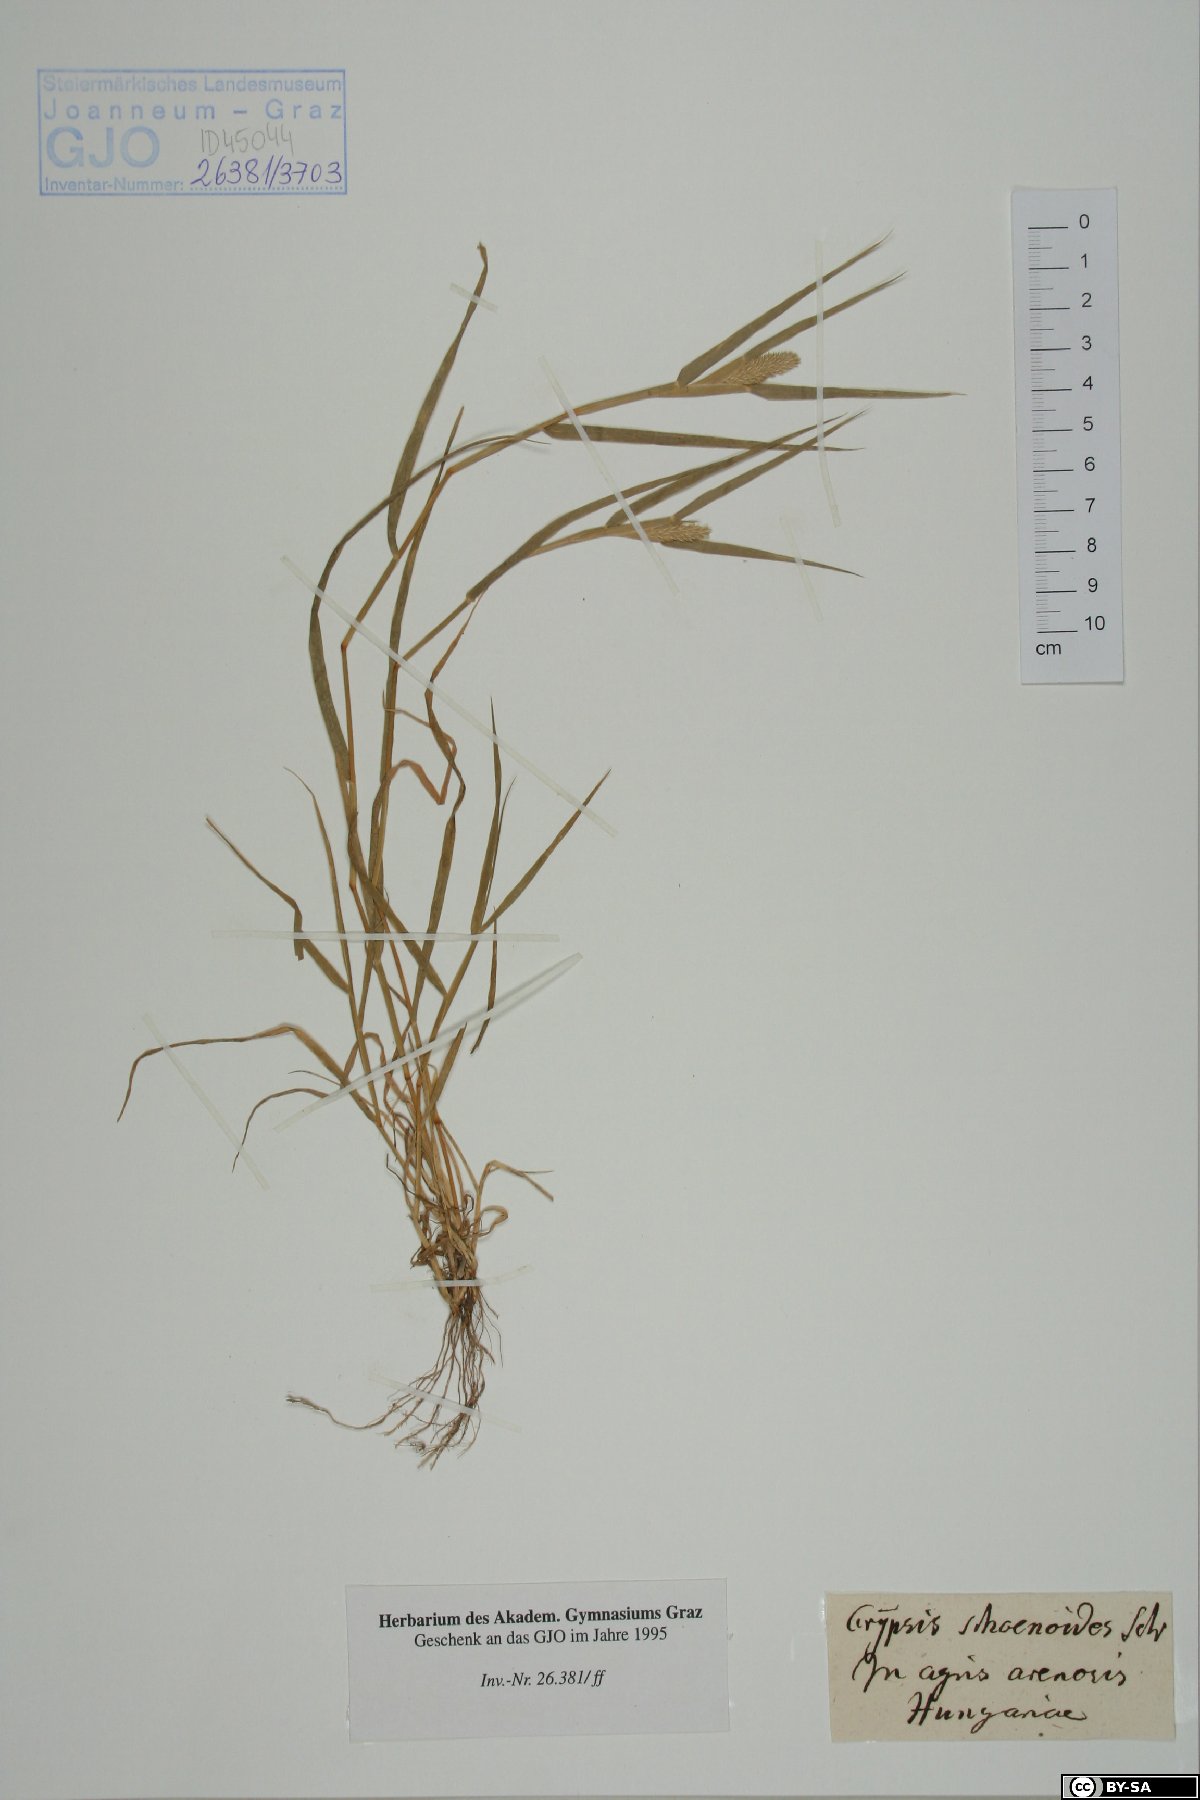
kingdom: Plantae
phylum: Tracheophyta
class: Liliopsida
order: Poales
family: Poaceae
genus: Sporobolus
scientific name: Sporobolus schoenoides
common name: Rush-like timothy
